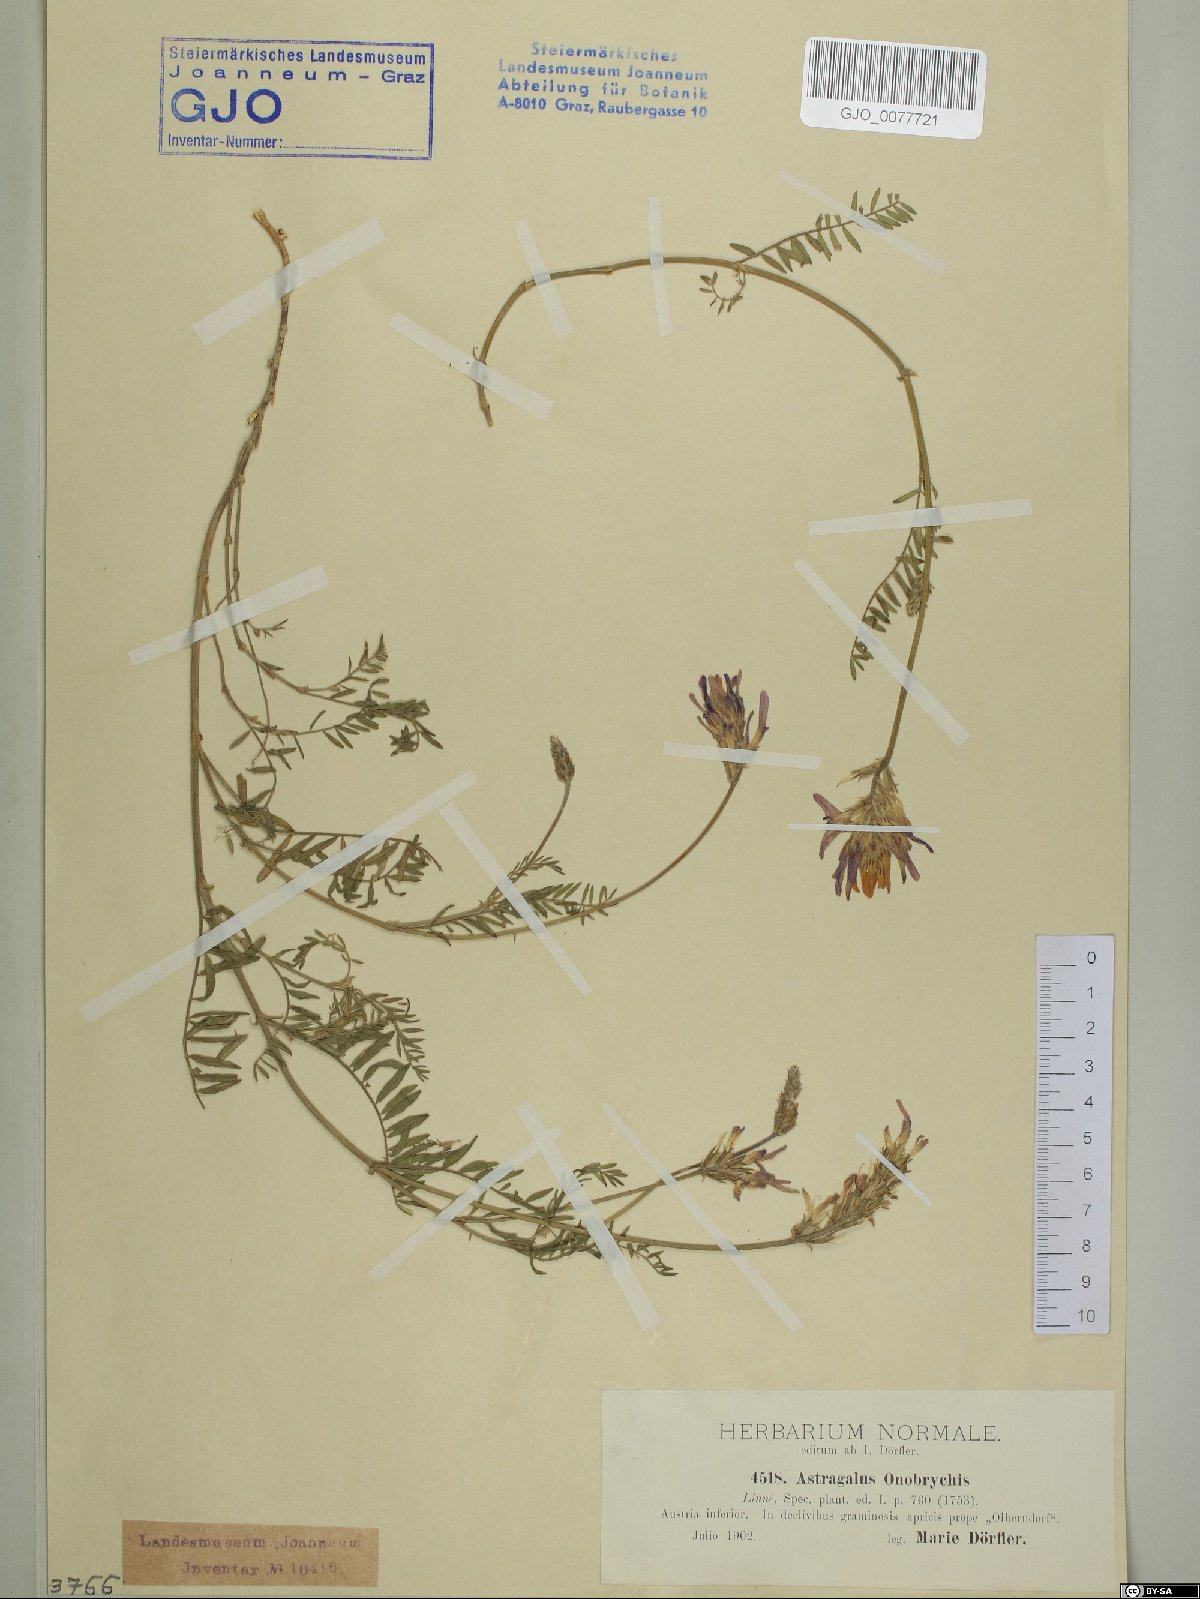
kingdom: Plantae
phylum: Tracheophyta
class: Magnoliopsida
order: Fabales
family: Fabaceae
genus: Astragalus
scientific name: Astragalus onobrychis
